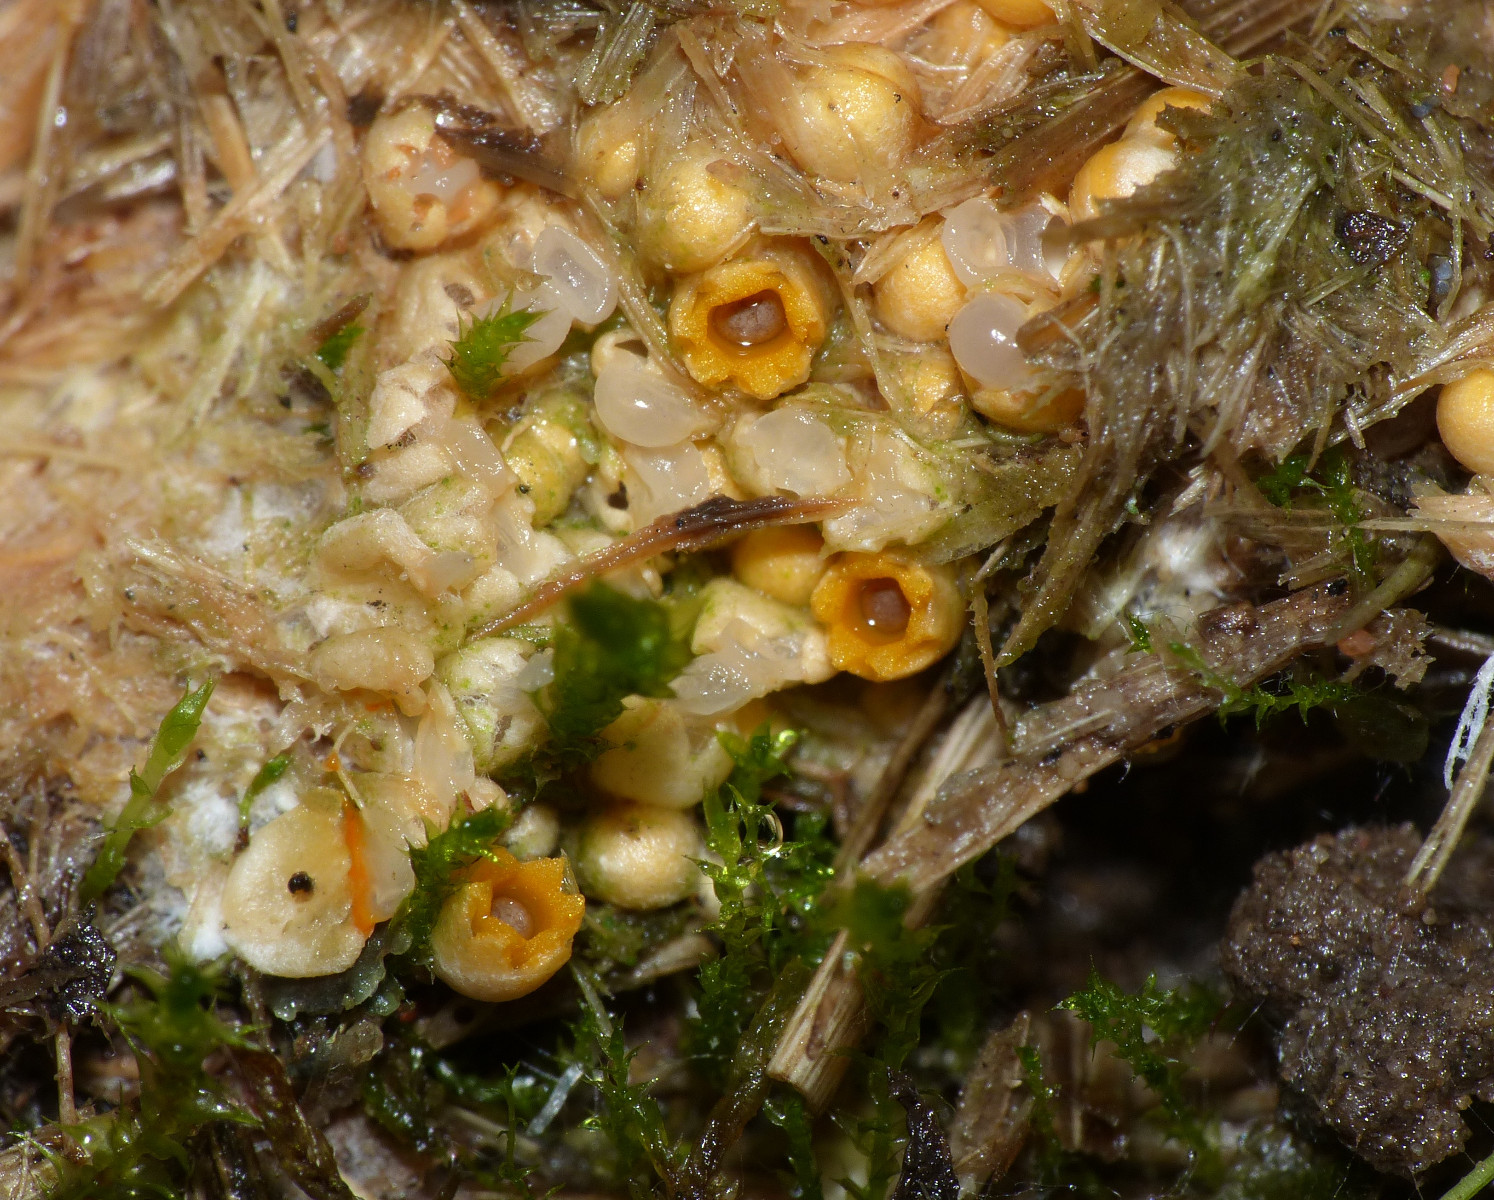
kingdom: Fungi
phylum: Basidiomycota
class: Agaricomycetes
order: Geastrales
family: Geastraceae
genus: Sphaerobolus
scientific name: Sphaerobolus stellatus
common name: bombekaster
